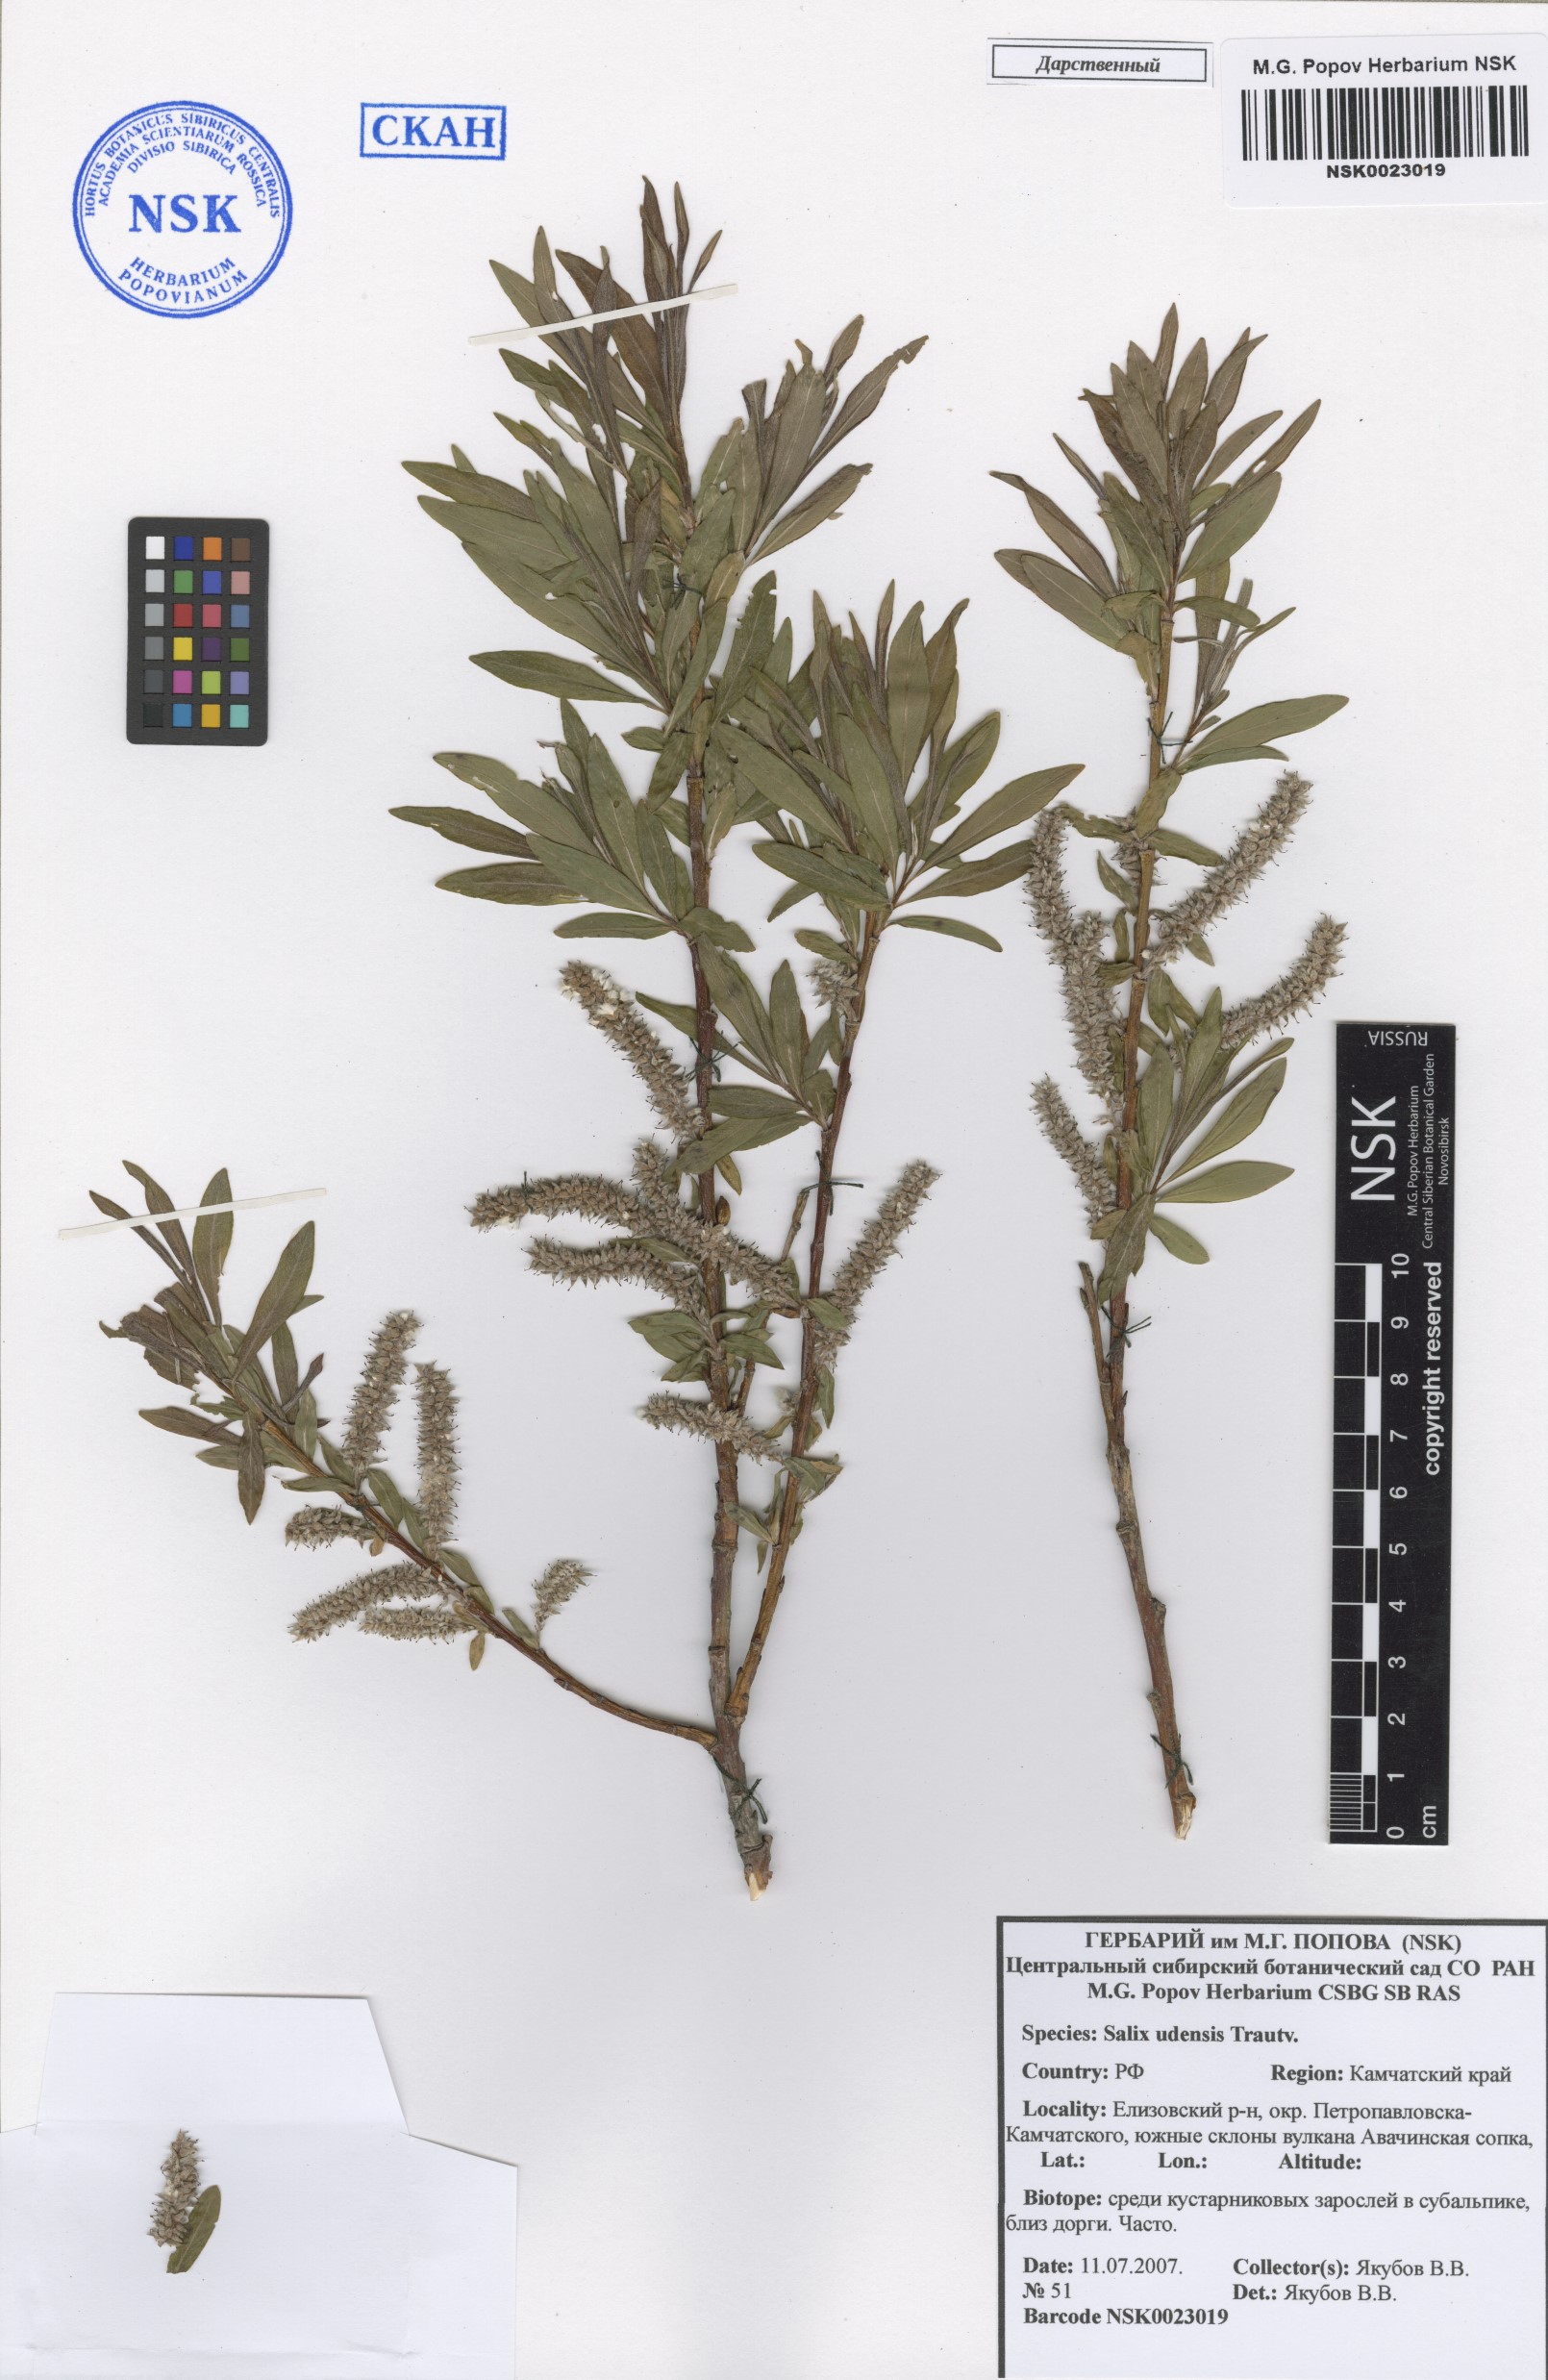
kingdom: Plantae
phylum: Tracheophyta
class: Magnoliopsida
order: Malpighiales
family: Salicaceae
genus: Salix
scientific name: Salix udensis
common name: Sachalin willow
